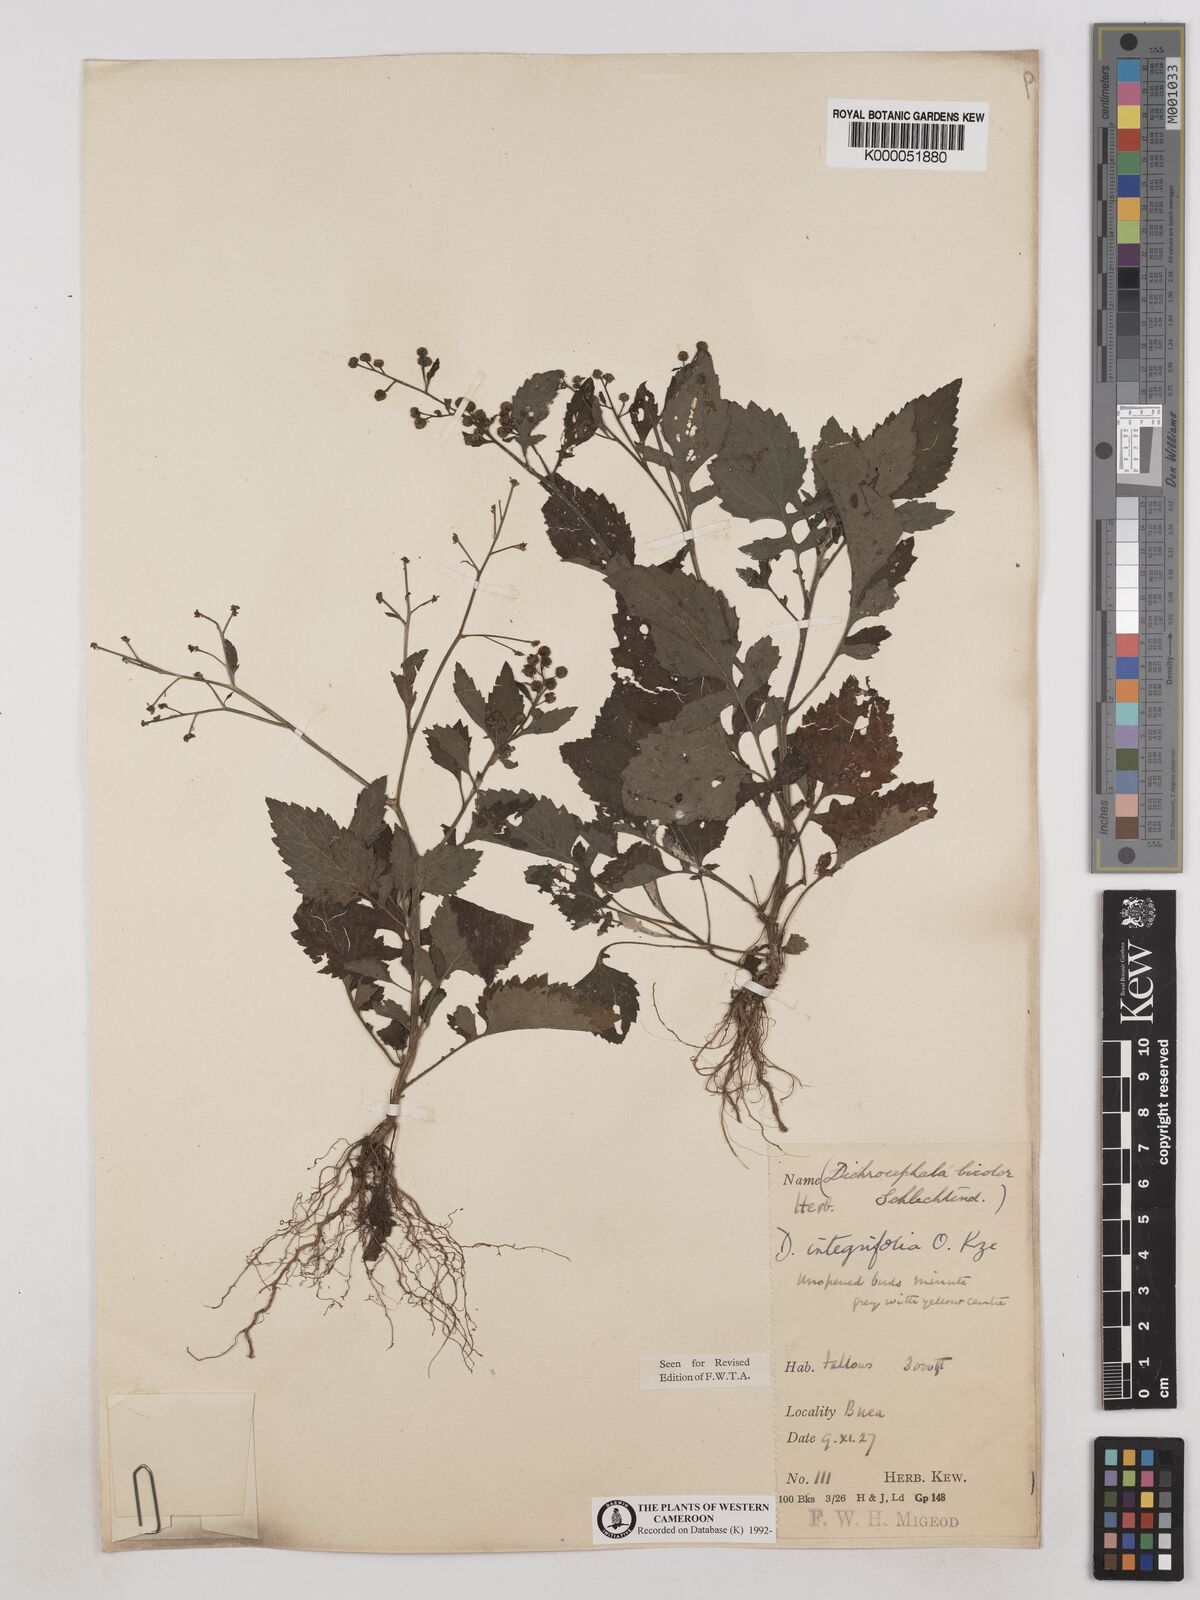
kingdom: Plantae
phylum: Tracheophyta
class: Magnoliopsida
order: Asterales
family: Asteraceae
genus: Dichrocephala
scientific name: Dichrocephala integrifolia
